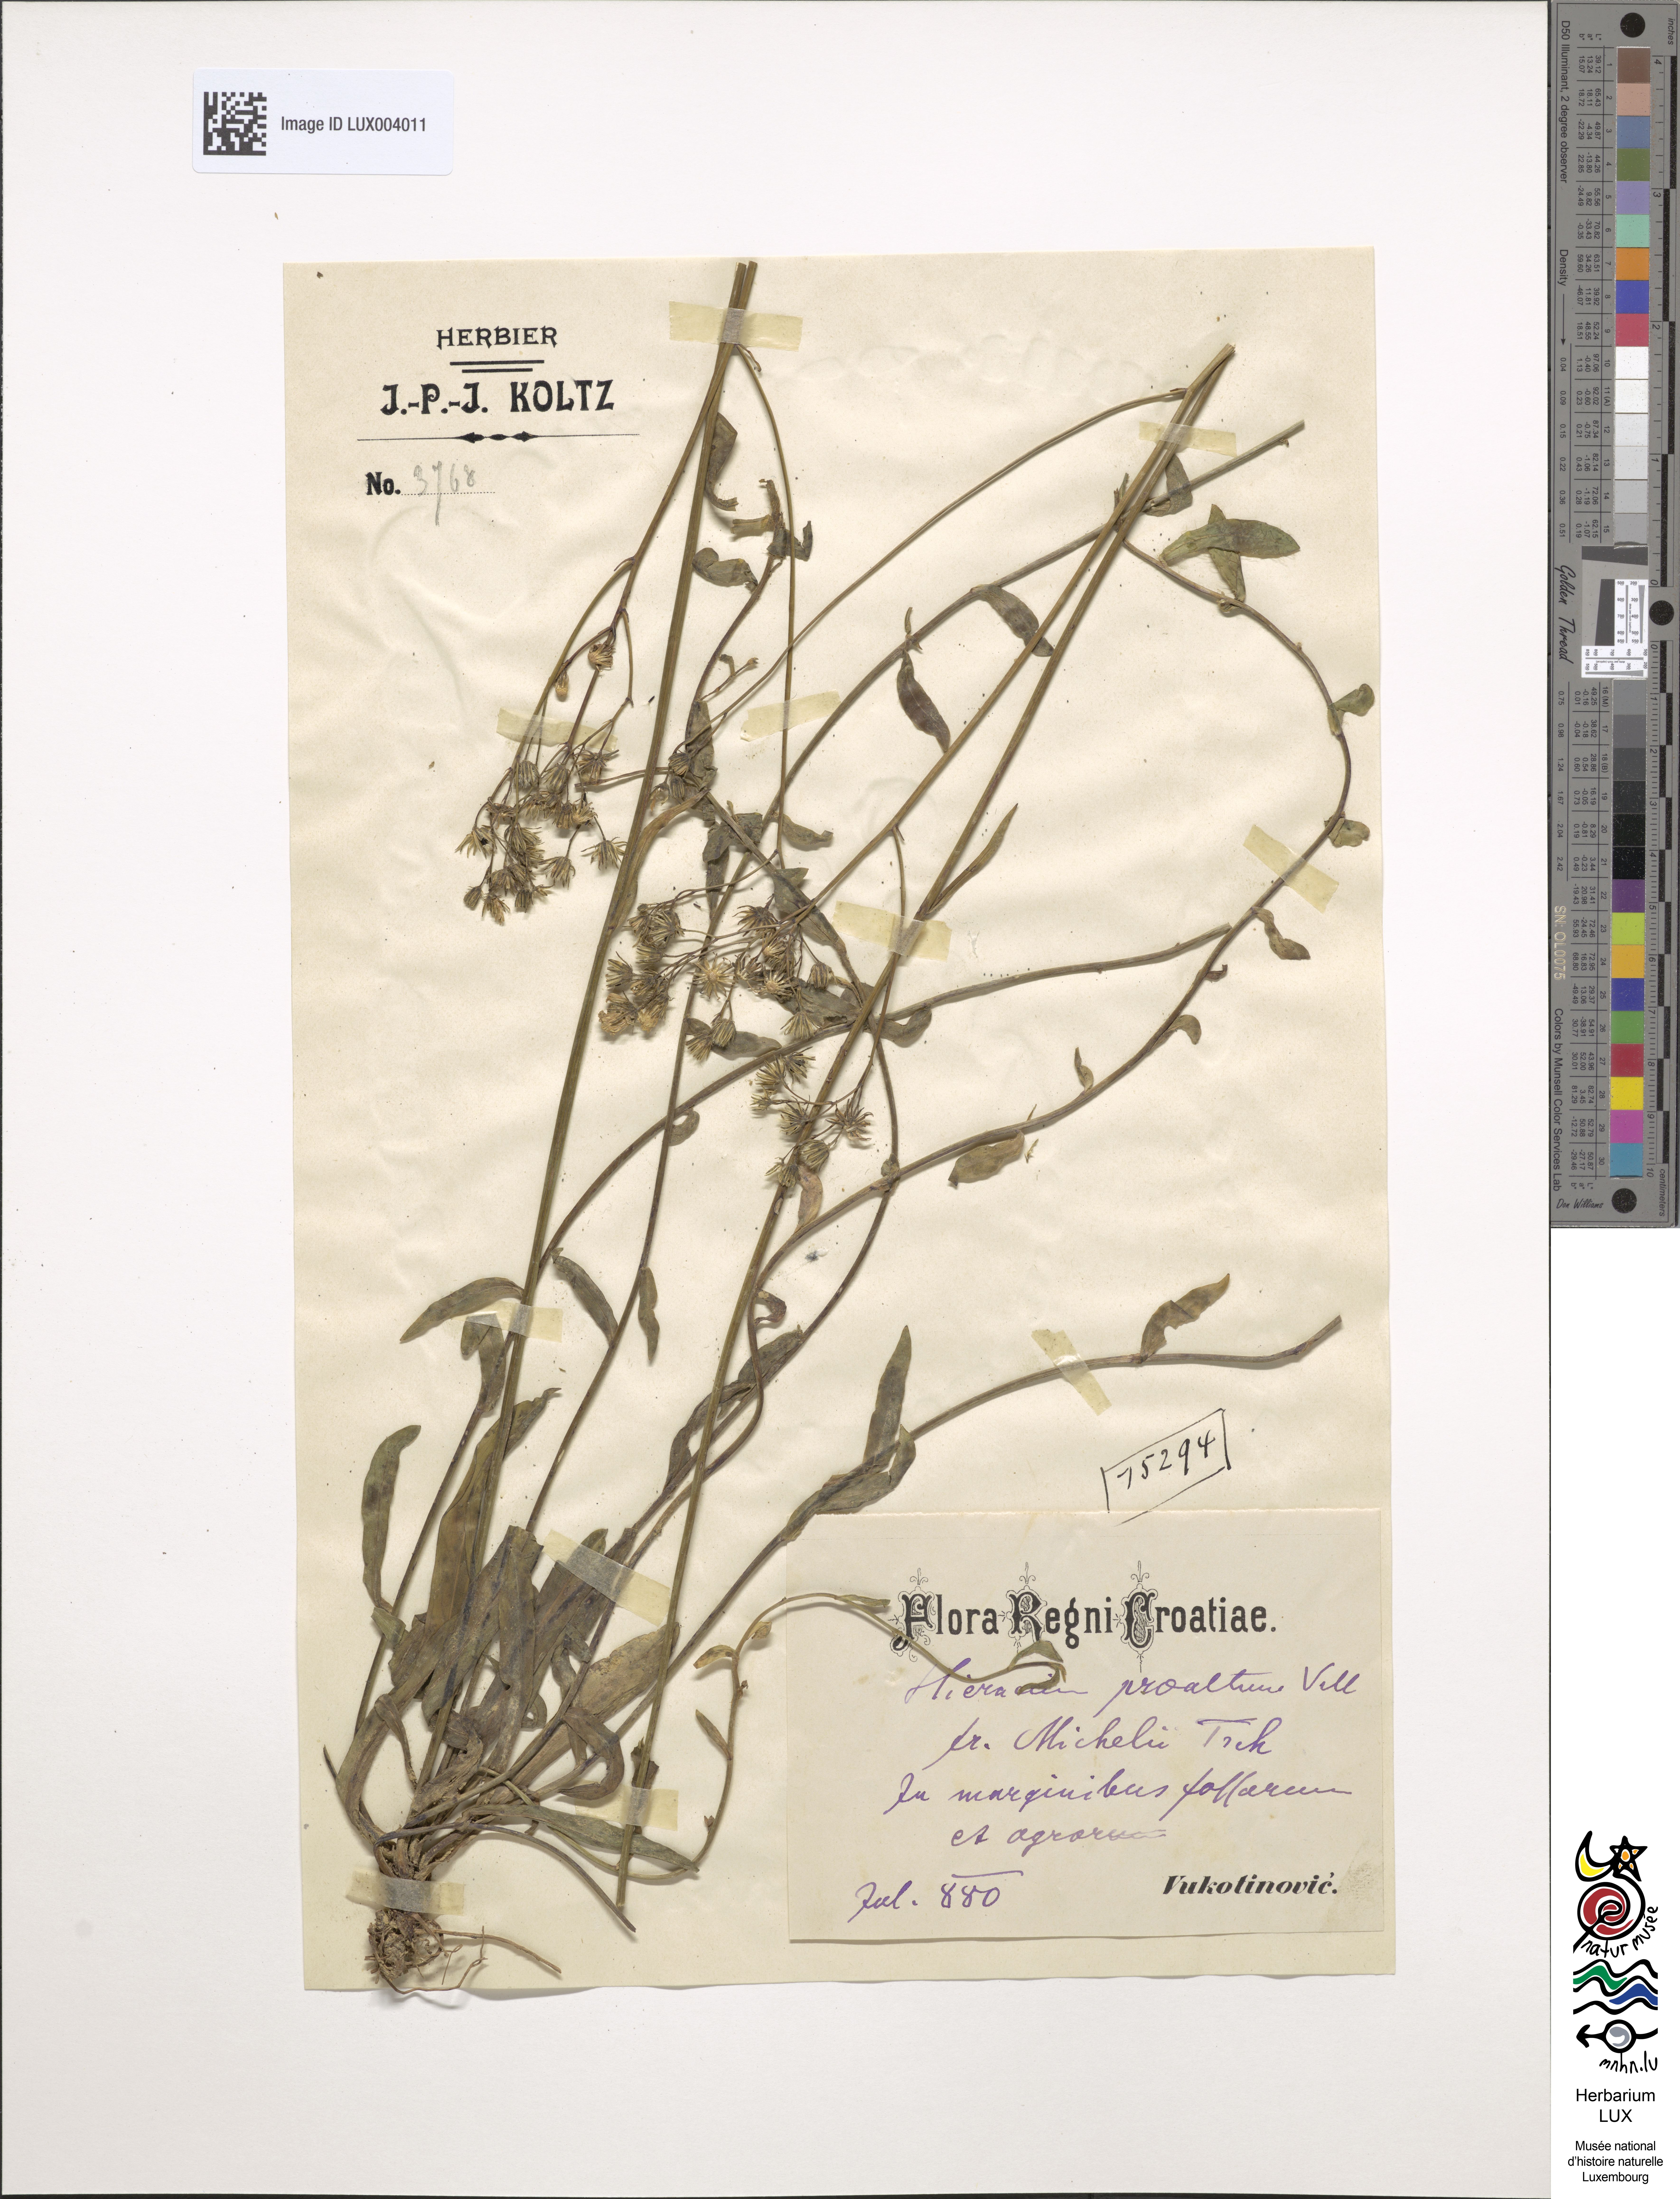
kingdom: Plantae
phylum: Tracheophyta
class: Magnoliopsida
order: Asterales
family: Asteraceae
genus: Pilosella
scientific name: Pilosella piloselloides
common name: Glaucous king-devil
